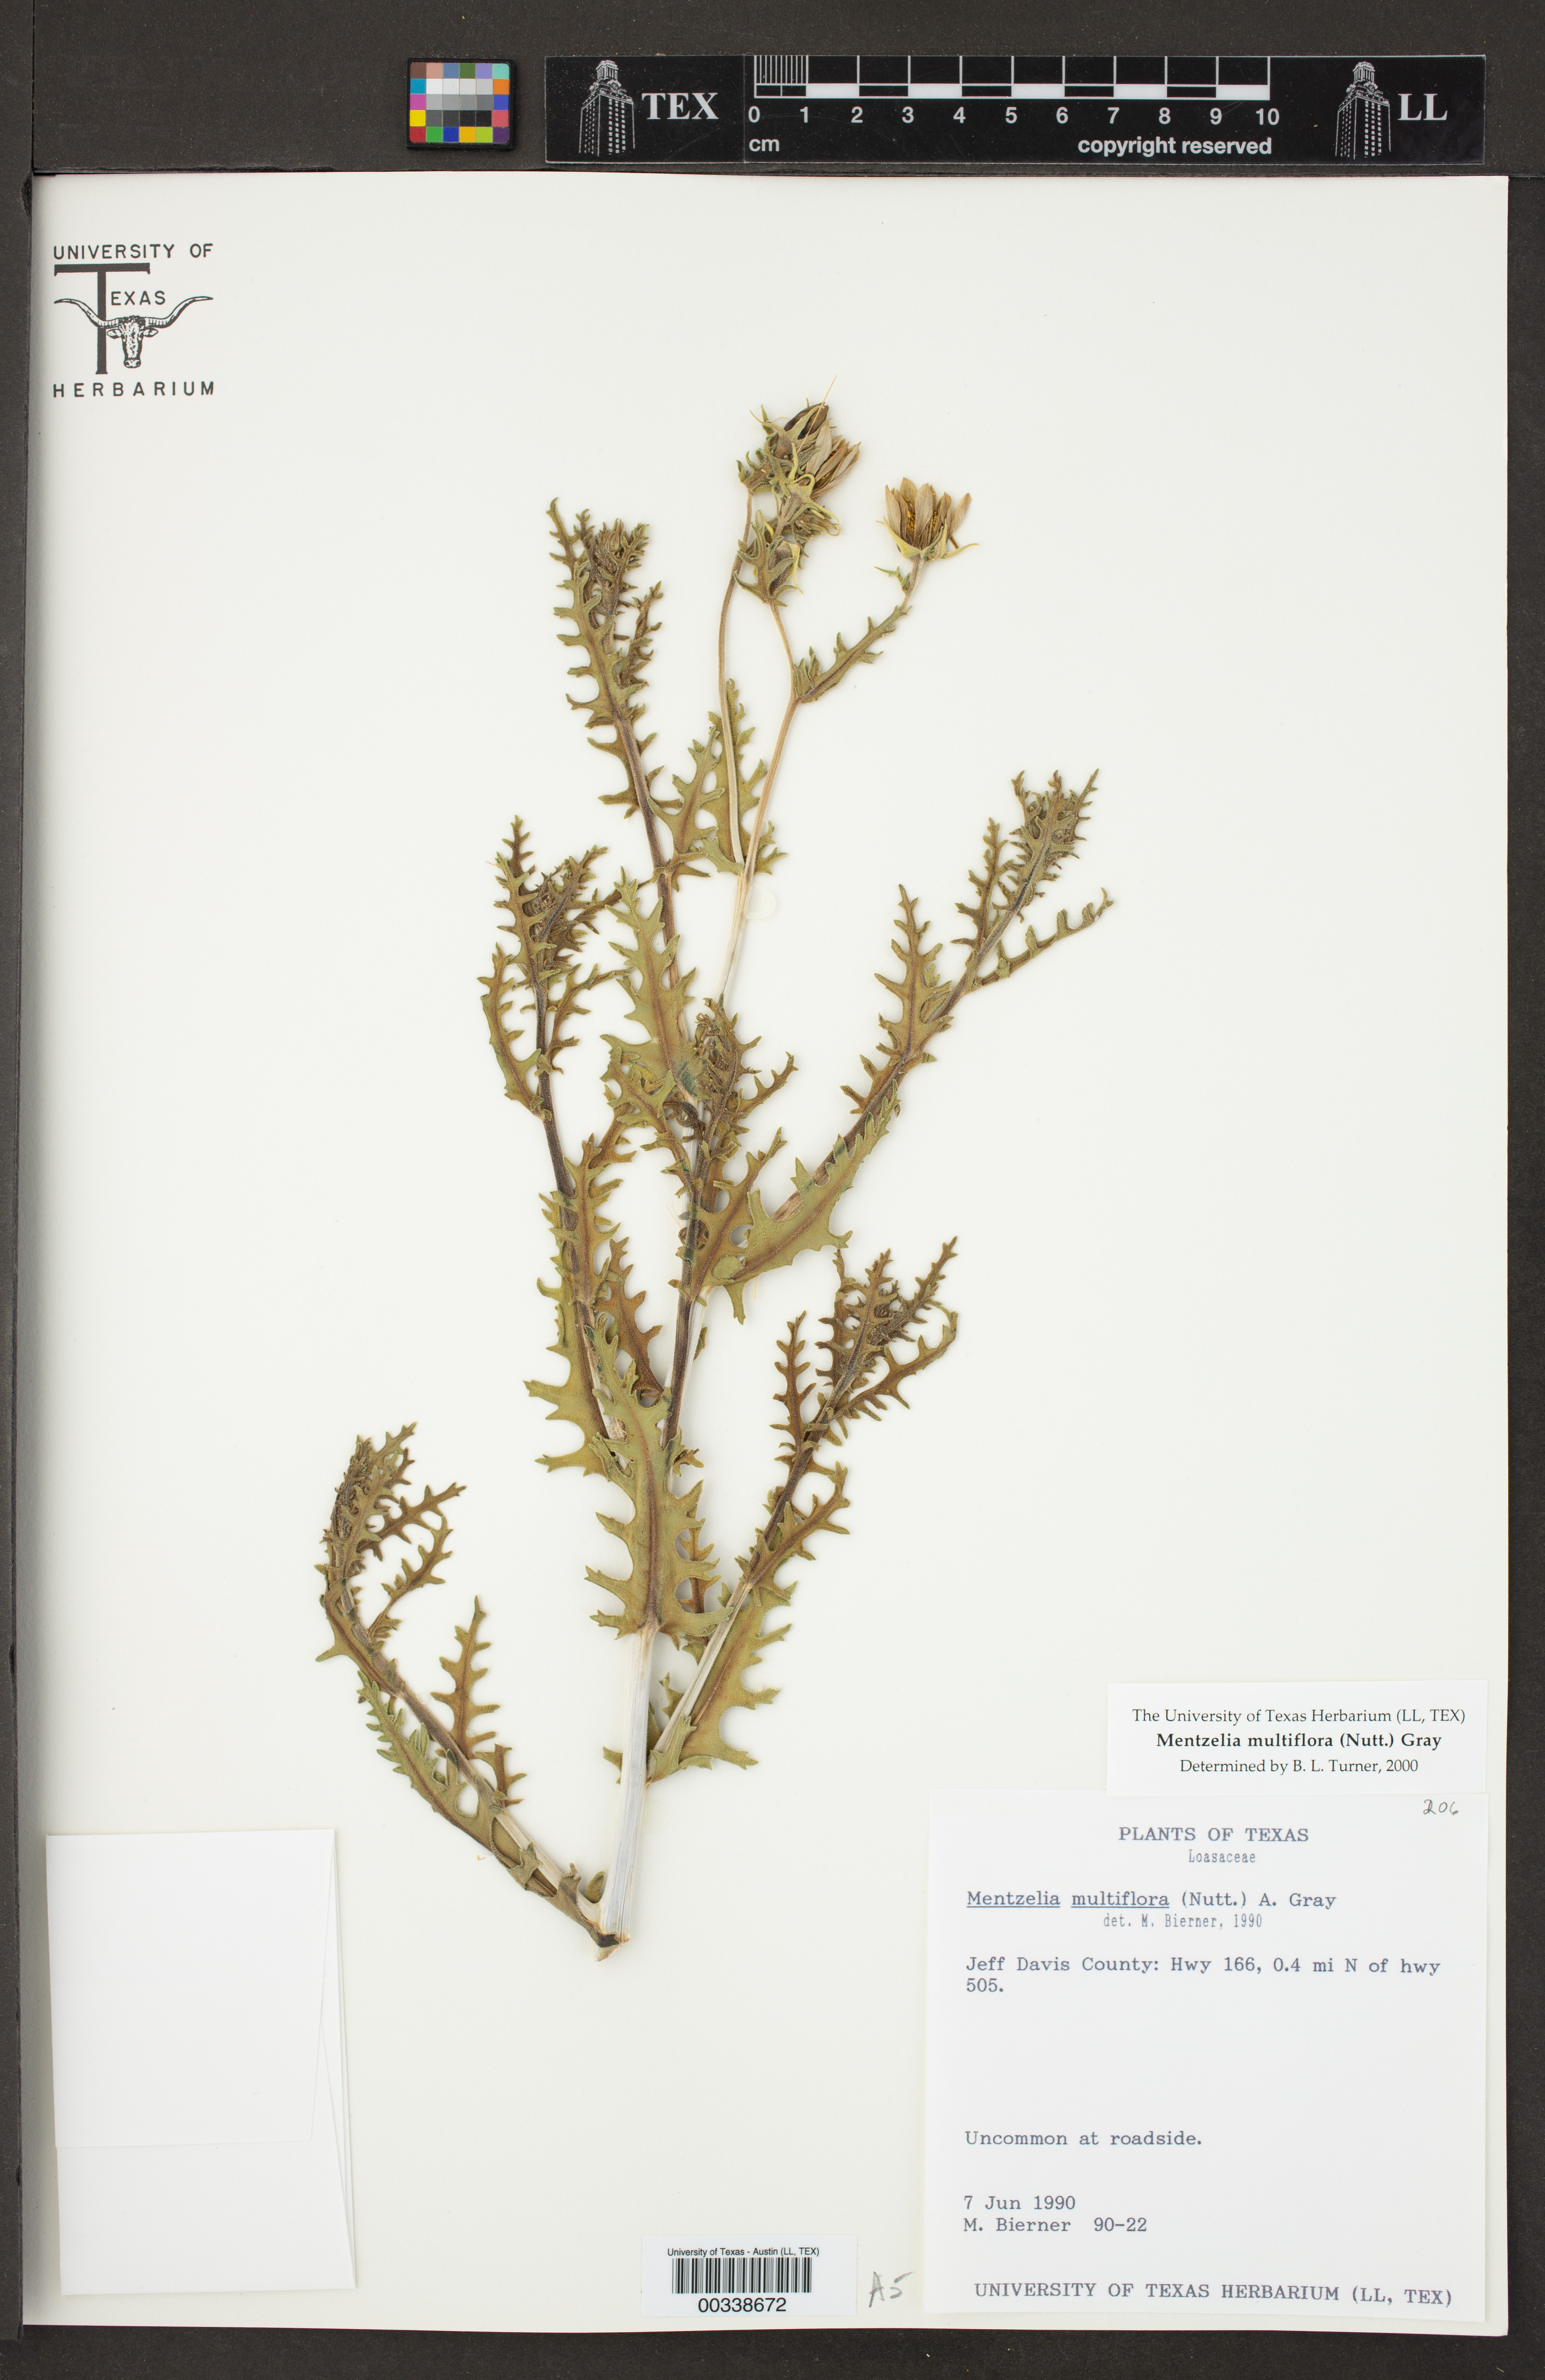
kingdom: Plantae
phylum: Tracheophyta
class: Magnoliopsida
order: Cornales
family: Loasaceae
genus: Mentzelia
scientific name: Mentzelia multiflora
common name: Adonis blazingstar
